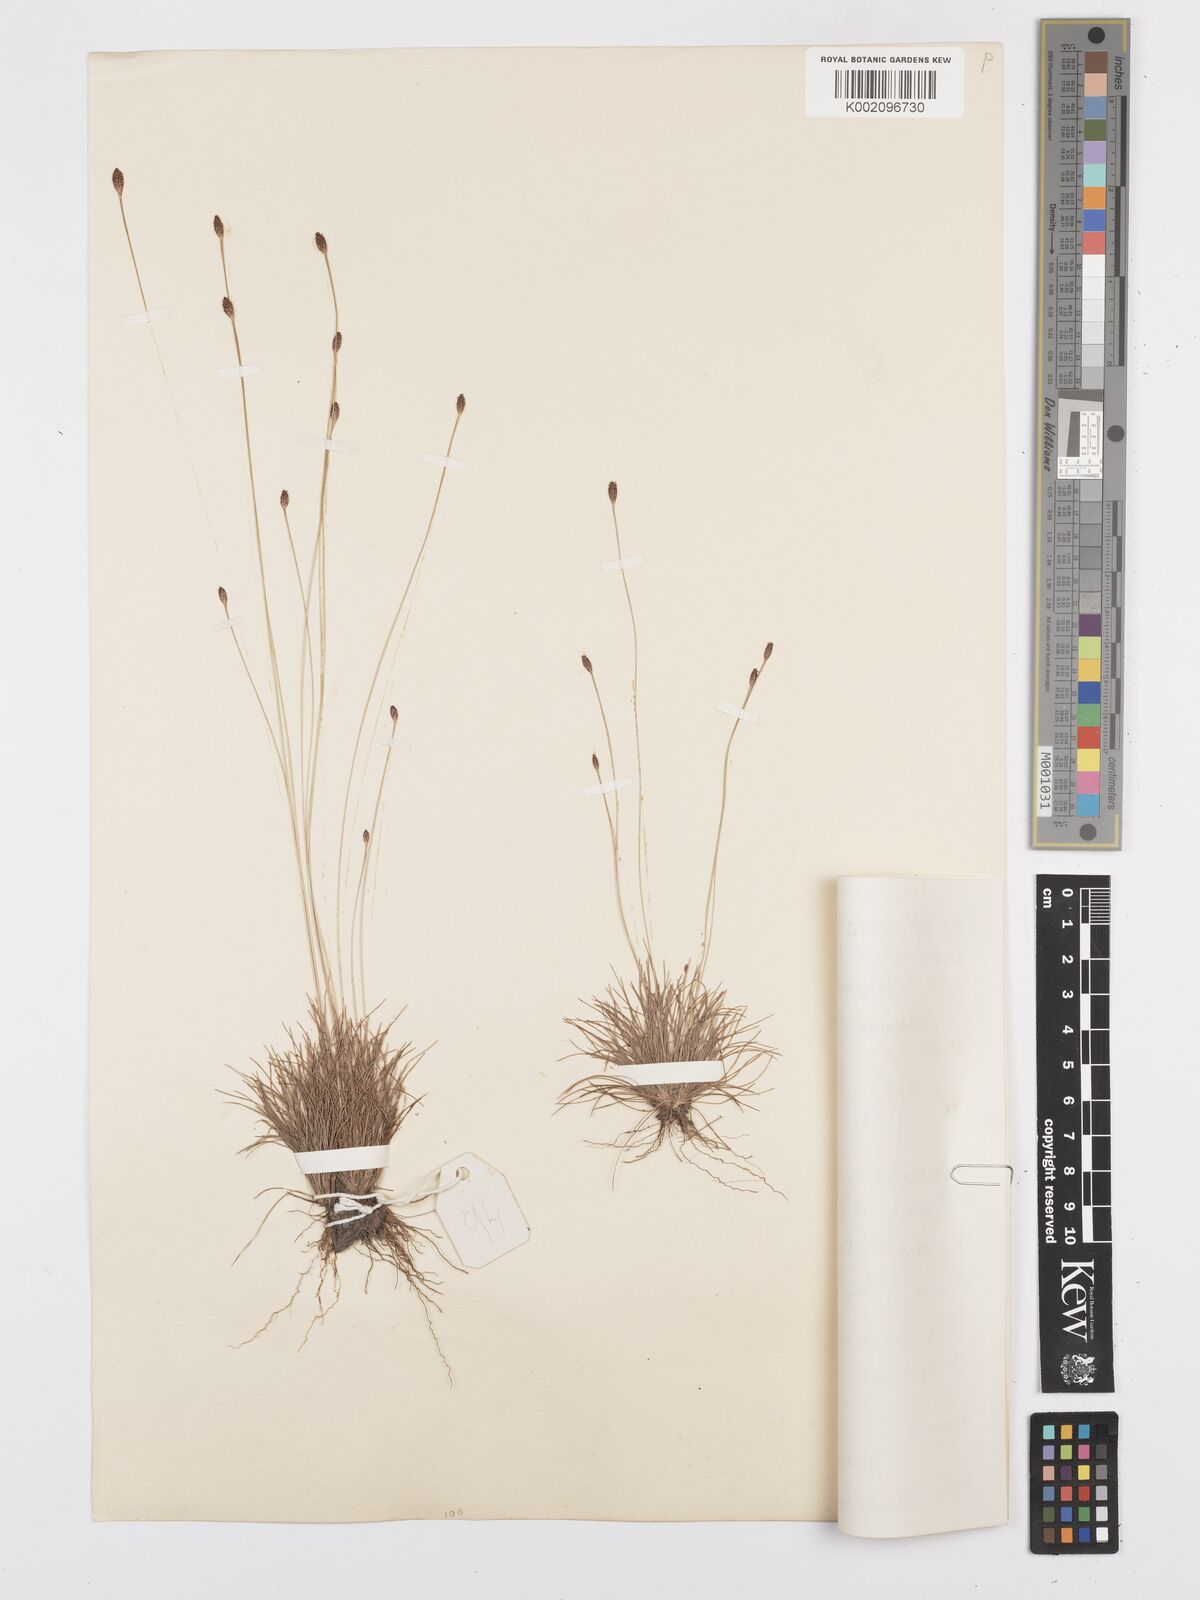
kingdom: Plantae
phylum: Tracheophyta
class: Liliopsida
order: Poales
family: Cyperaceae
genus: Bulbostylis
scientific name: Bulbostylis conifera
